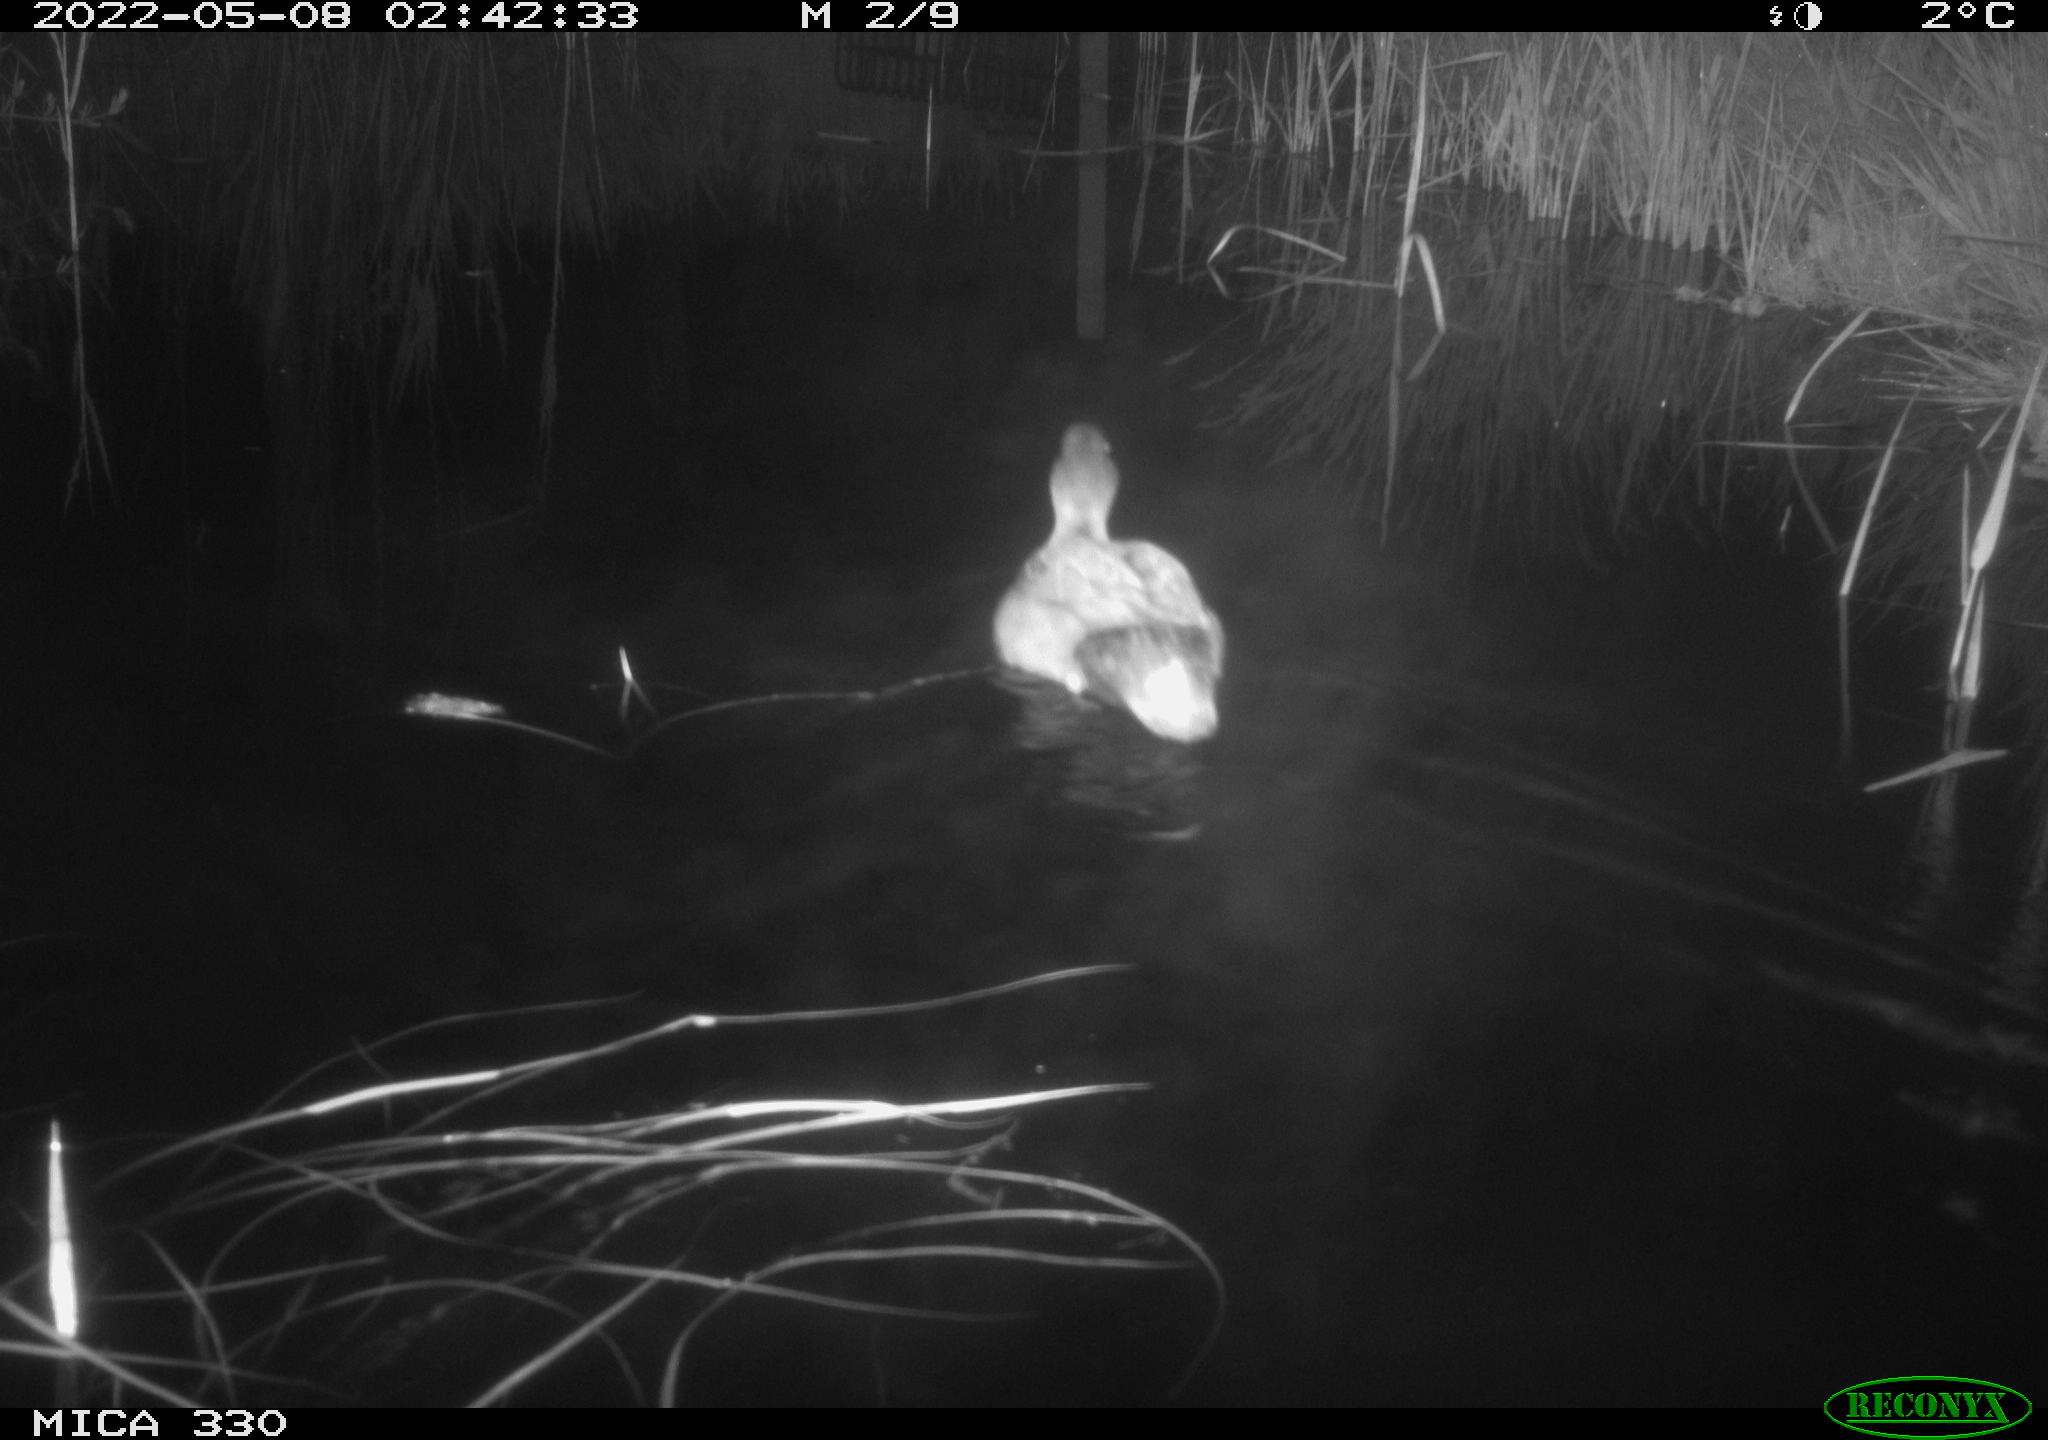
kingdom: Animalia
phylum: Chordata
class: Aves
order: Anseriformes
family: Anatidae
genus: Anas
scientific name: Anas platyrhynchos
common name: Mallard
